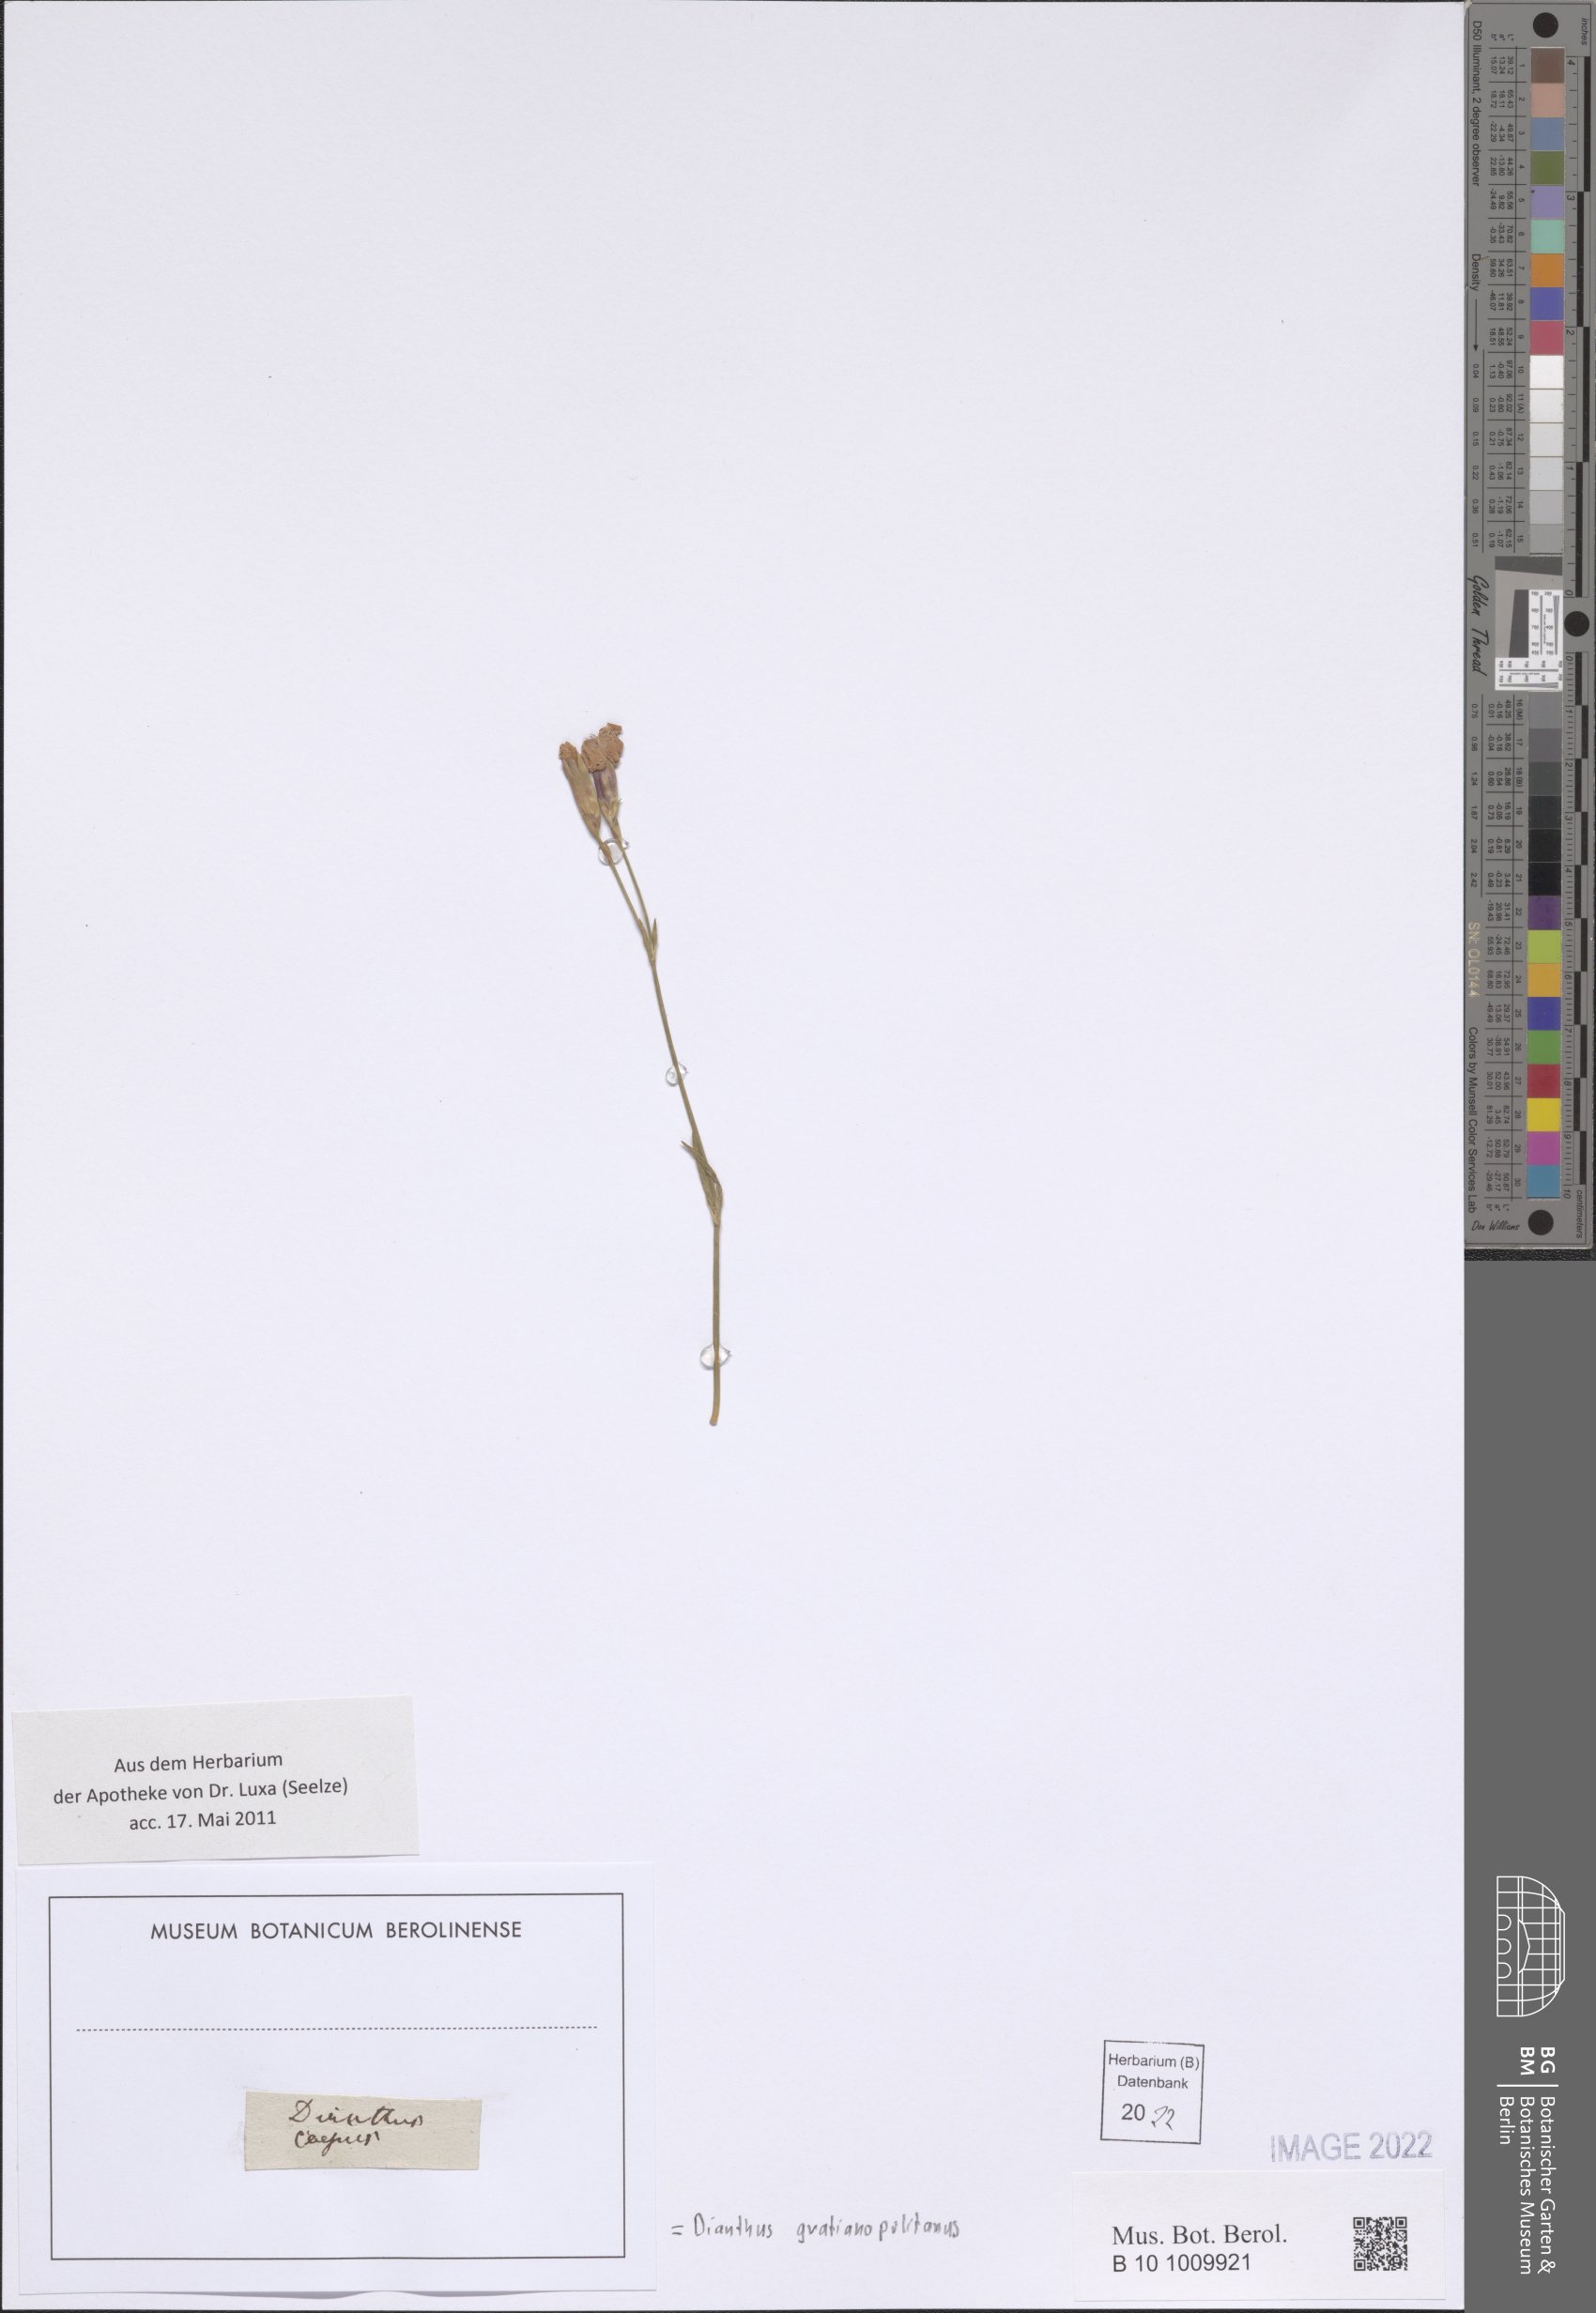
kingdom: Plantae
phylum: Tracheophyta
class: Magnoliopsida
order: Caryophyllales
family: Caryophyllaceae
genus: Dianthus
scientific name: Dianthus gratianopolitanus
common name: Cheddar pink
